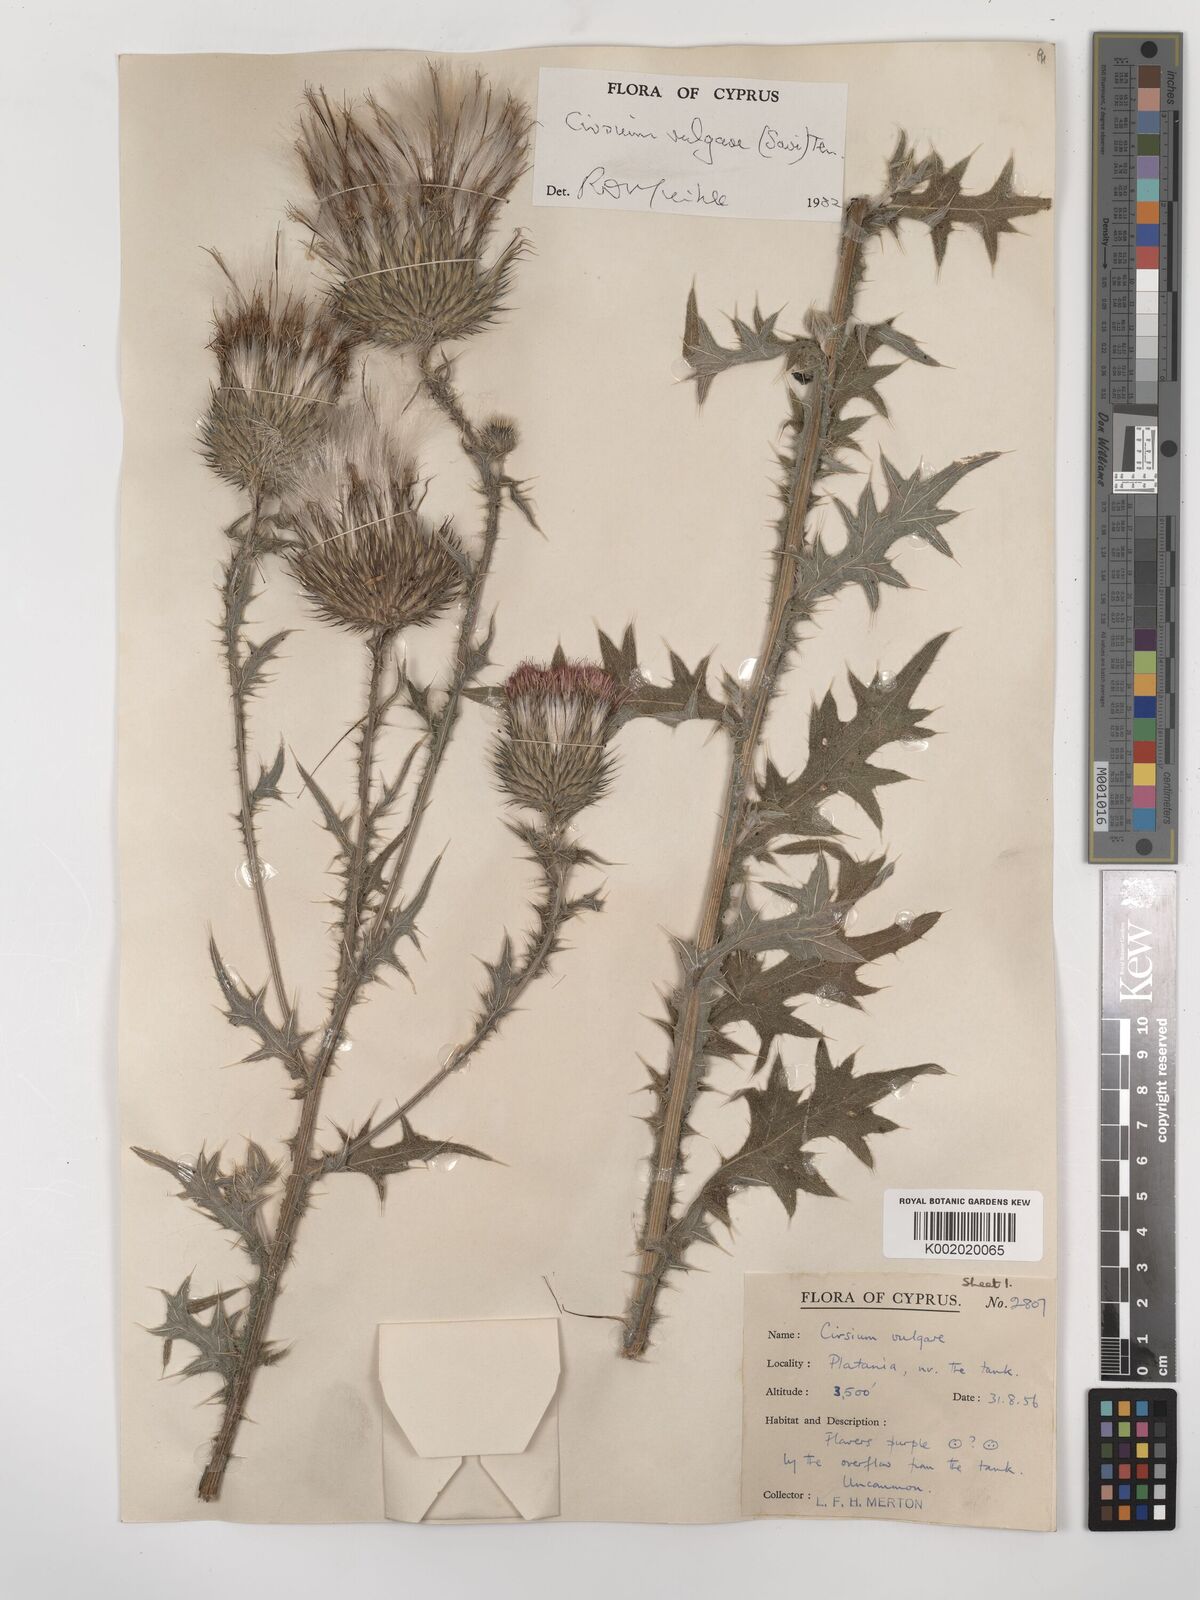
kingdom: Plantae
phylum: Tracheophyta
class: Magnoliopsida
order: Asterales
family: Asteraceae
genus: Cirsium
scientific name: Cirsium vulgare
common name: Bull thistle
